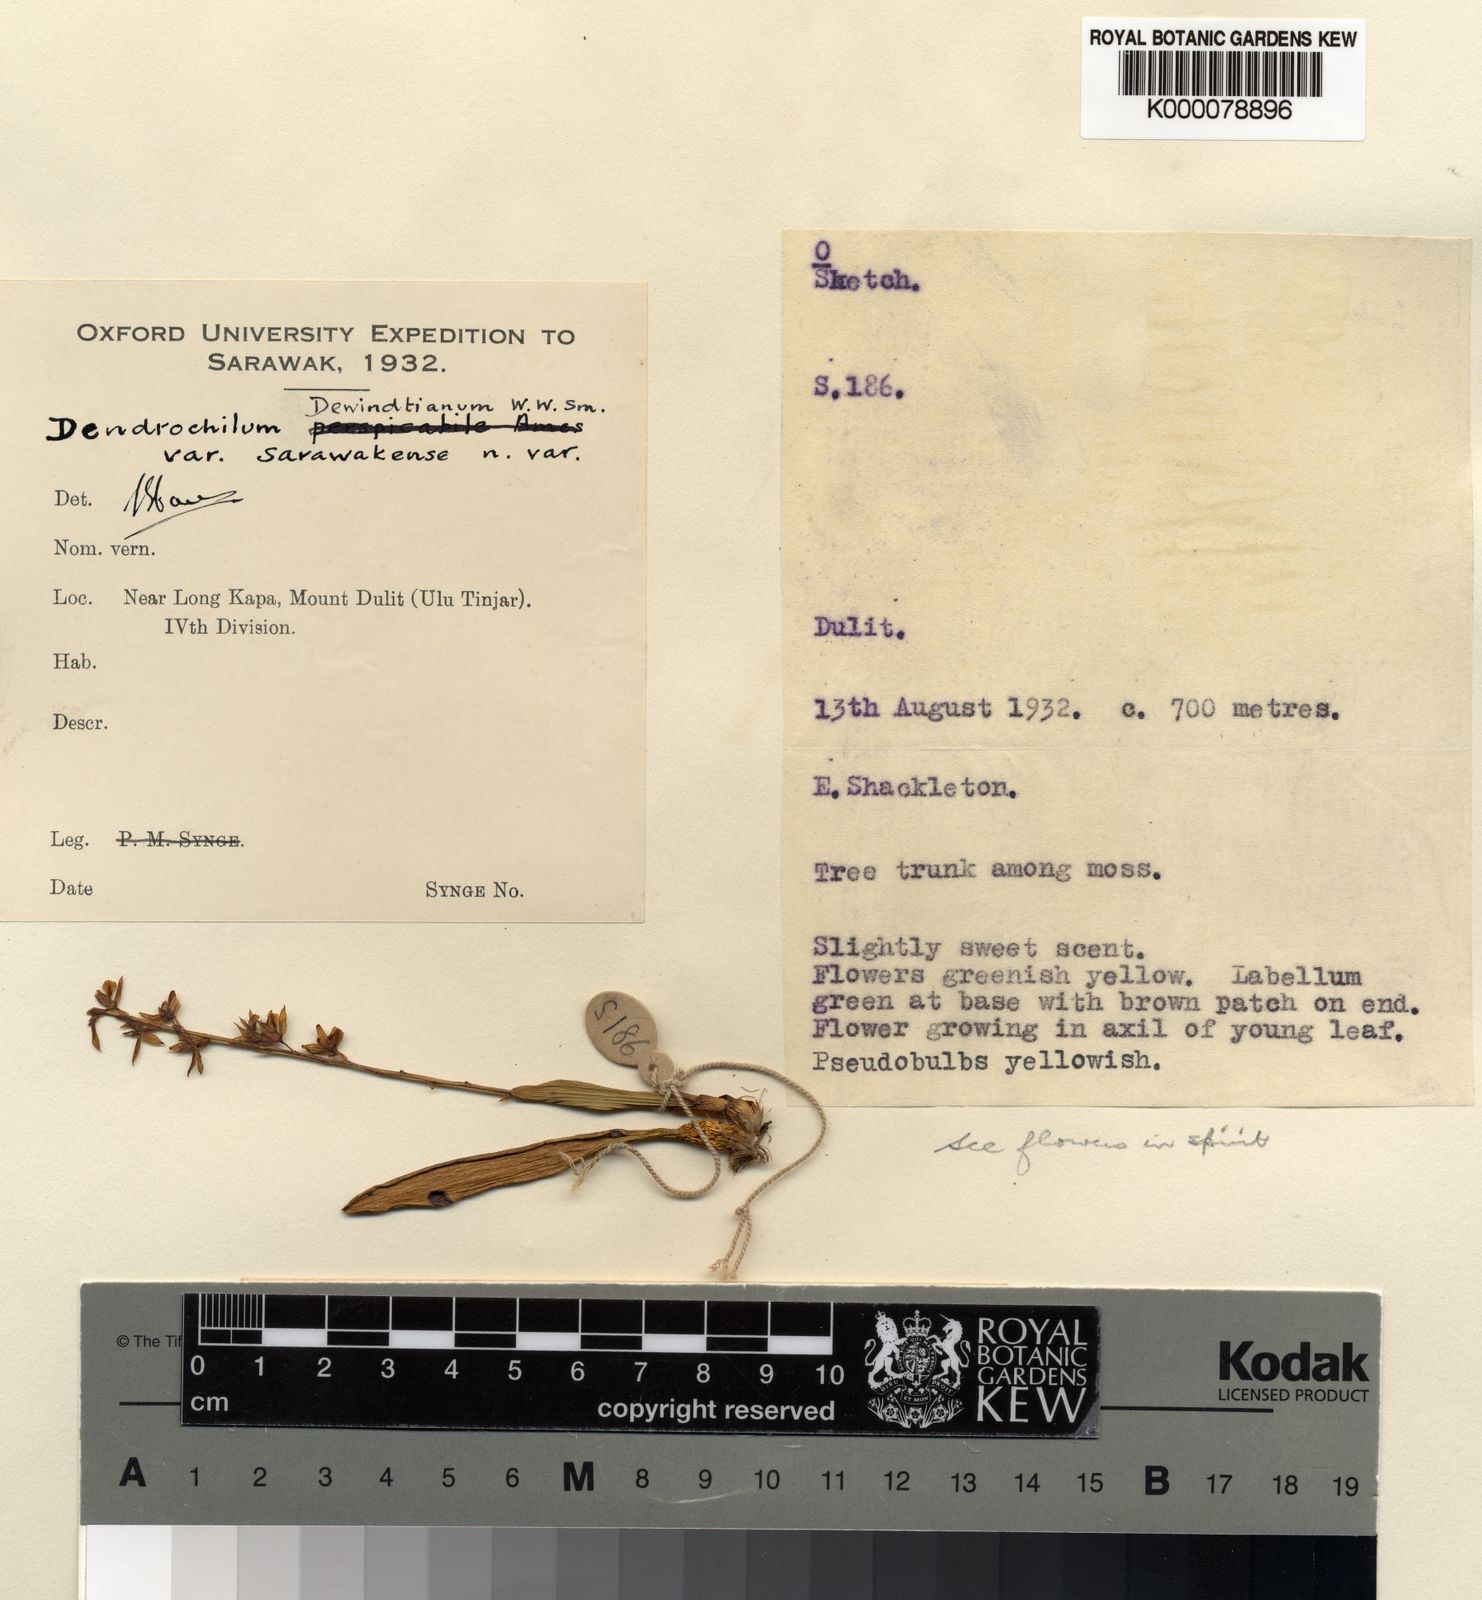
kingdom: Plantae
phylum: Tracheophyta
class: Liliopsida
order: Asparagales
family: Orchidaceae
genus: Coelogyne
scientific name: Coelogyne dewindtiana
